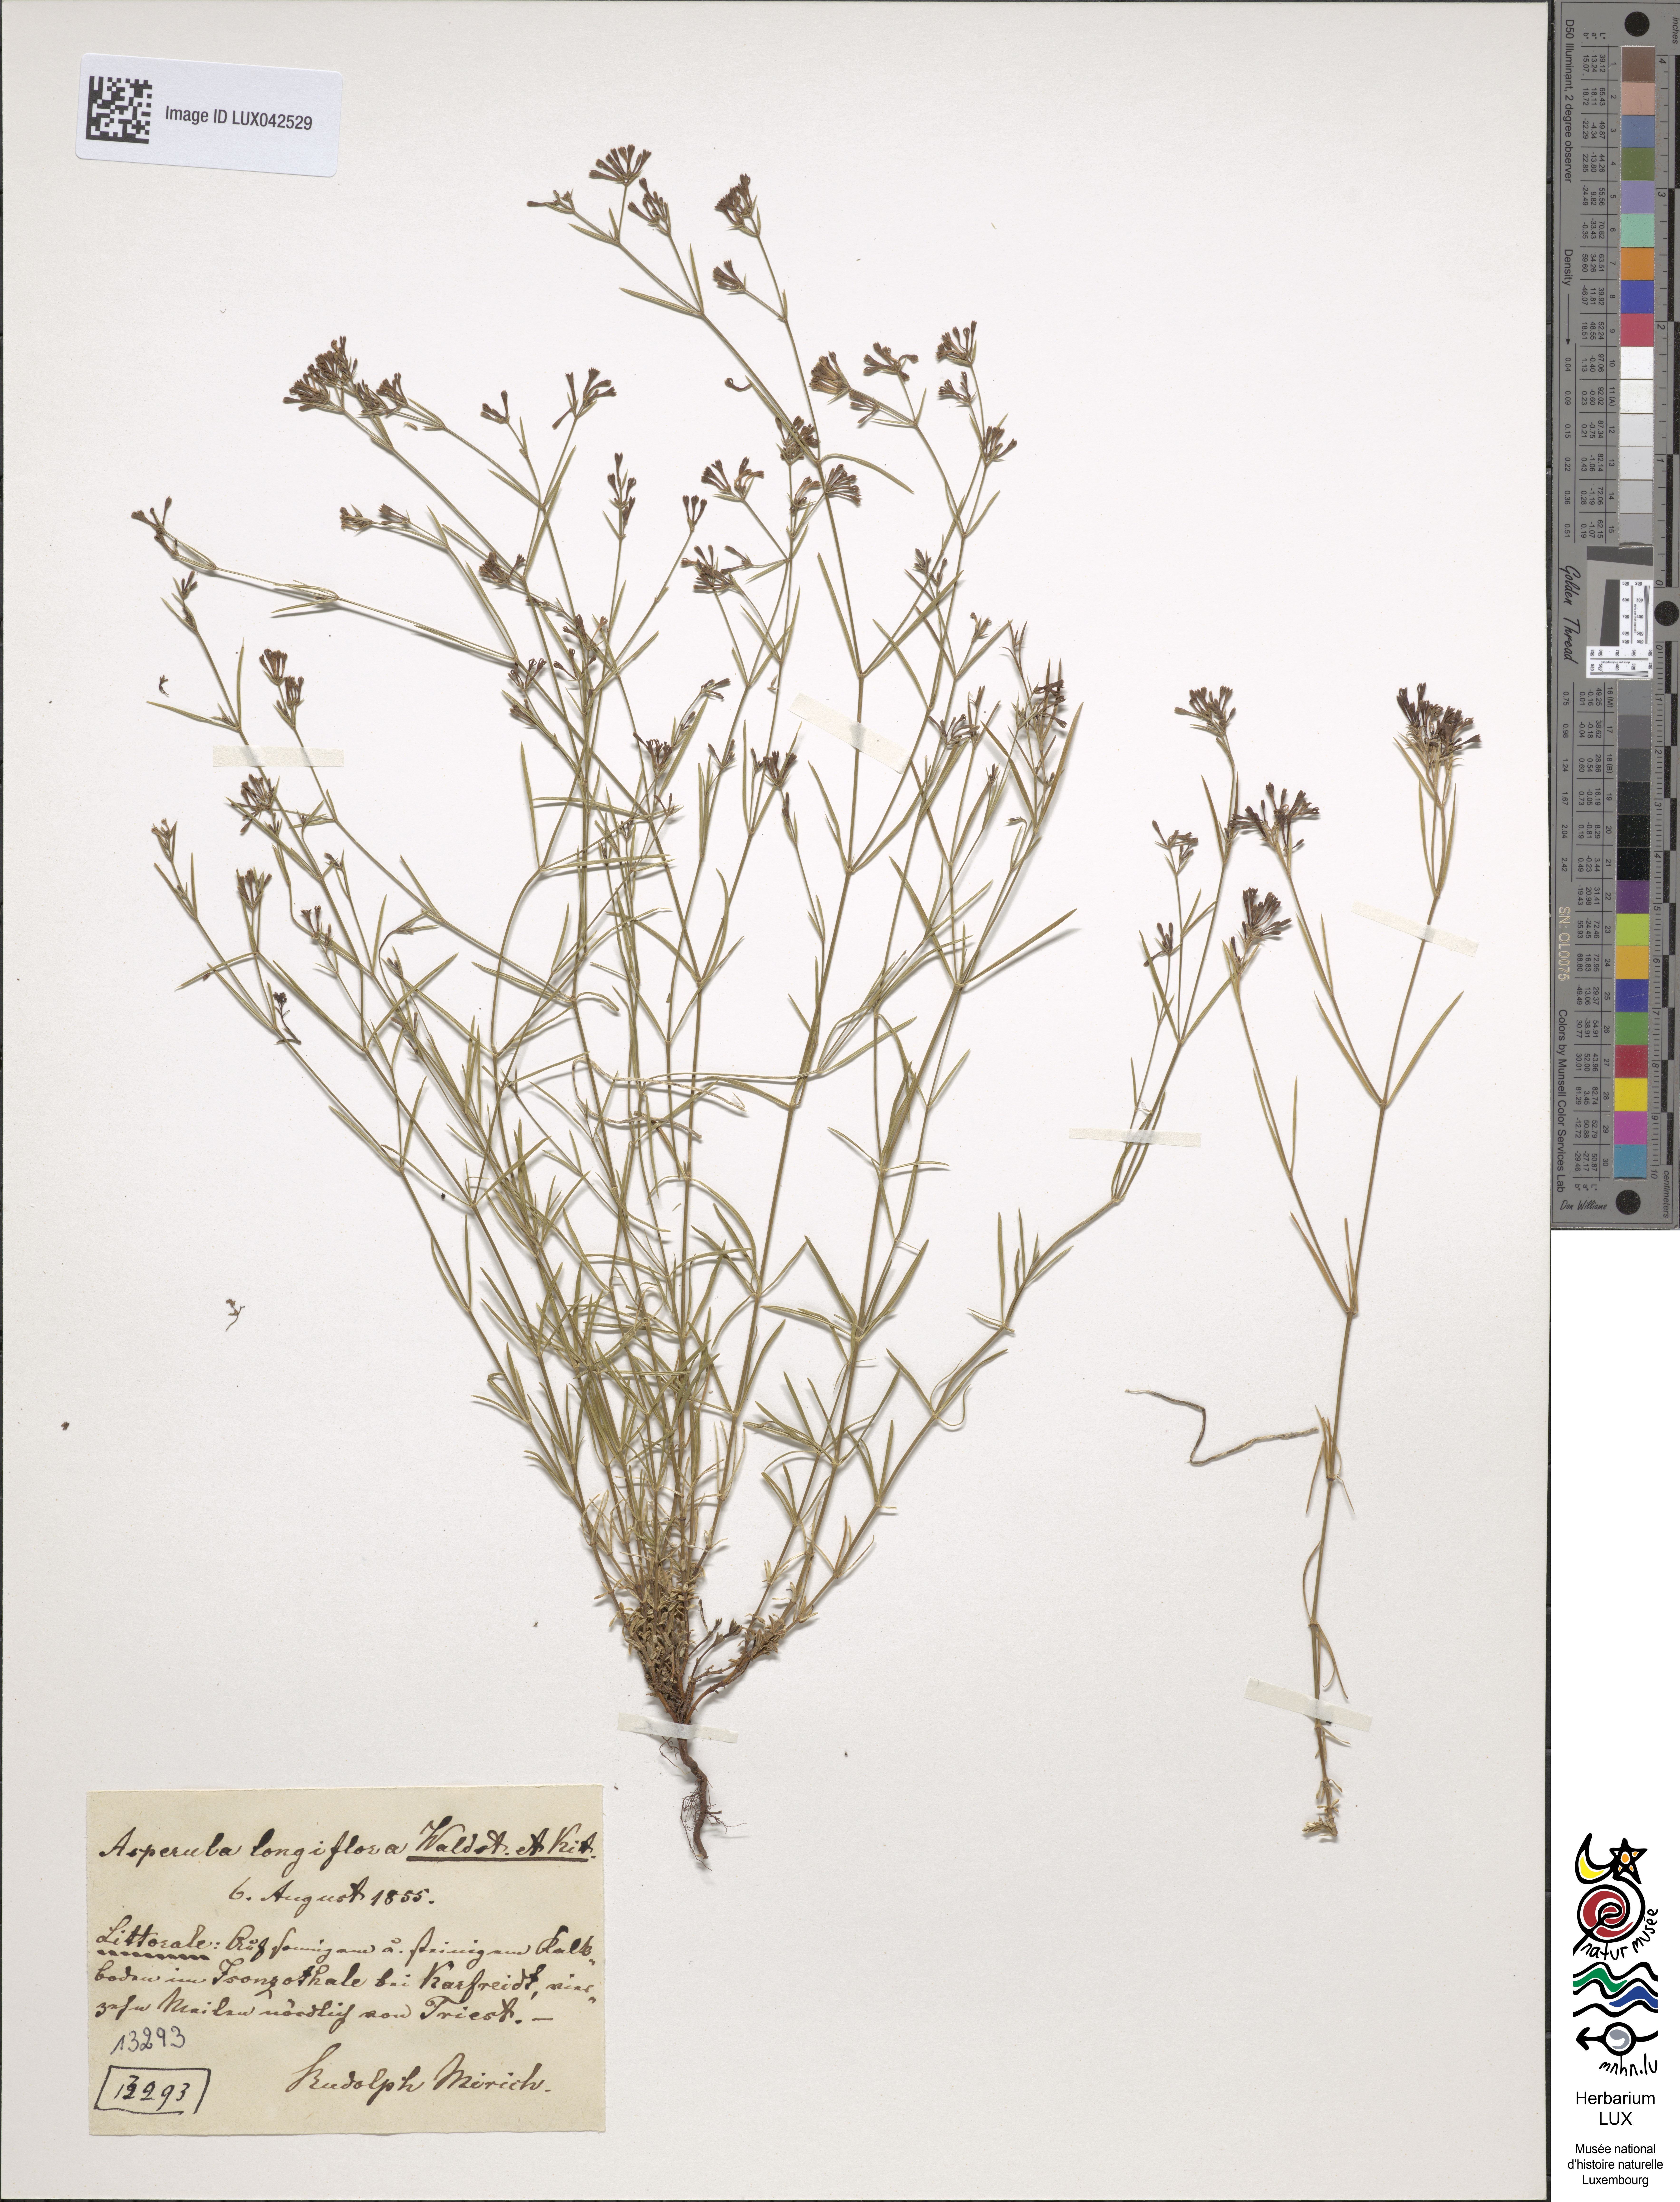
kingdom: Plantae
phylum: Tracheophyta
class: Magnoliopsida
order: Gentianales
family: Rubiaceae
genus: Cynanchica
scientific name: Cynanchica aristata
